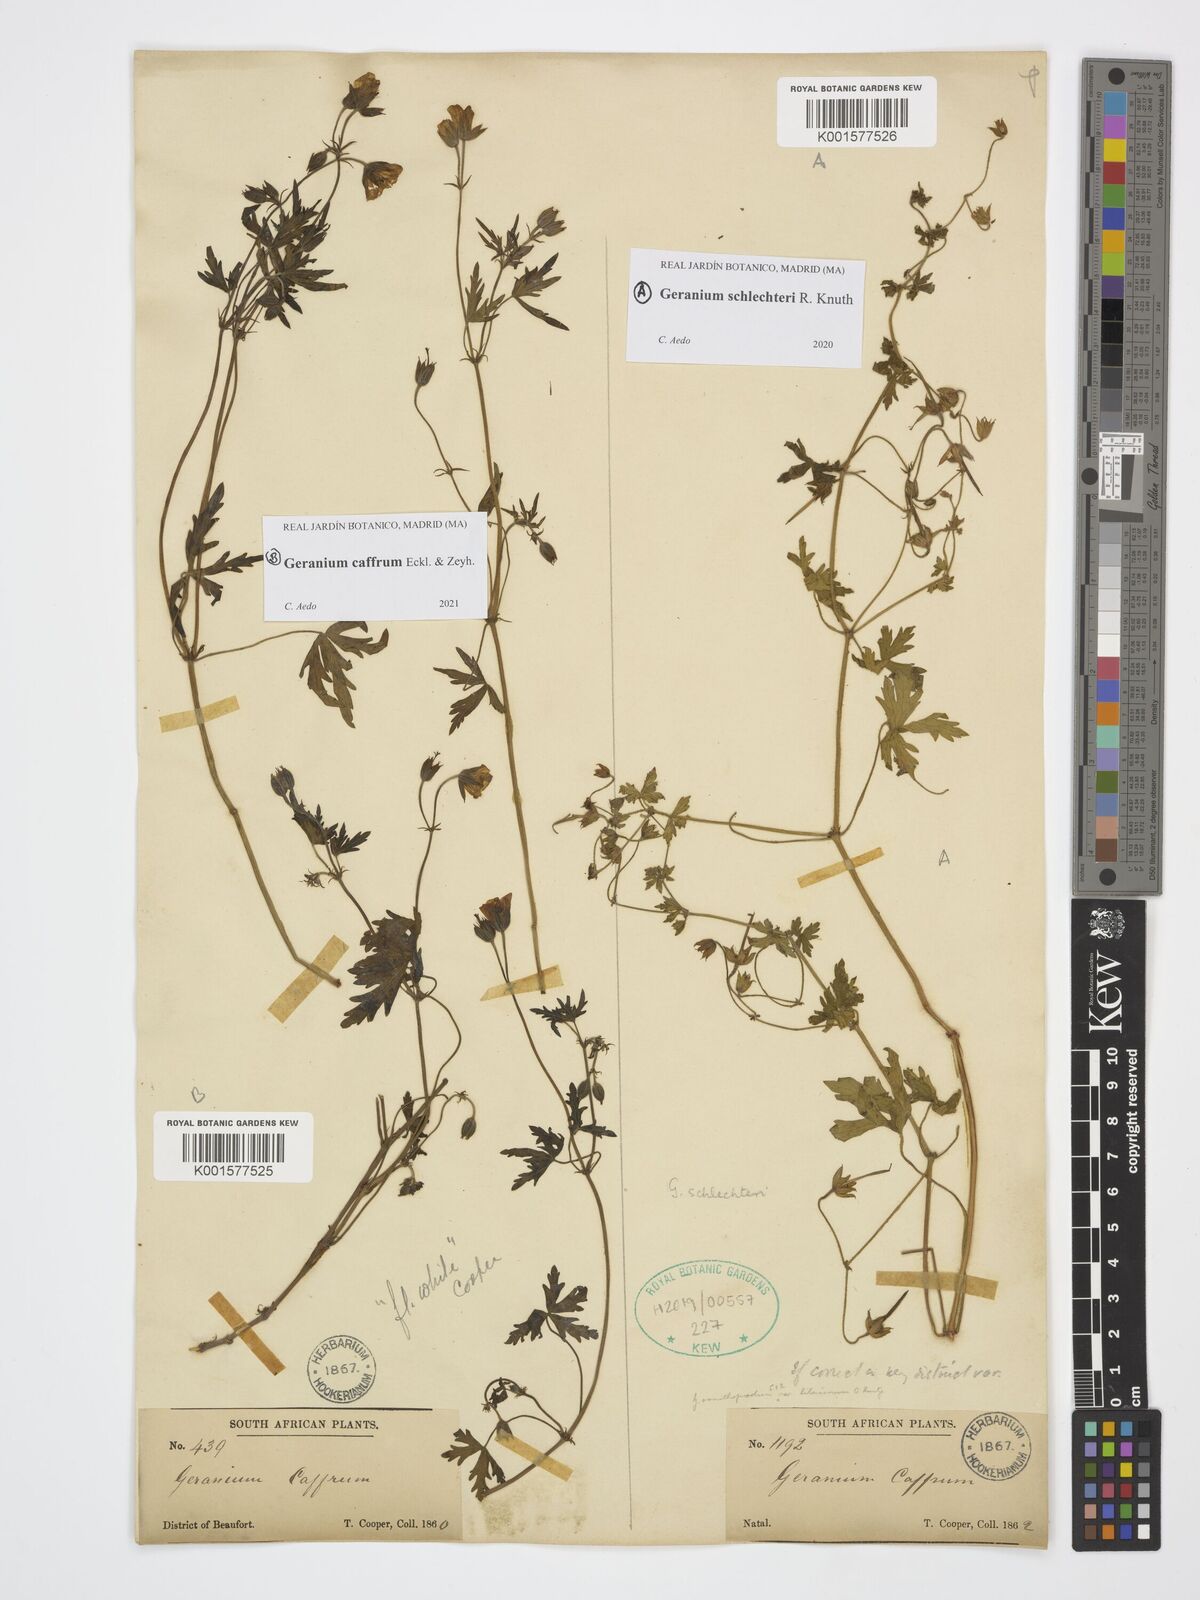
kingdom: Plantae
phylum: Tracheophyta
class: Magnoliopsida
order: Geraniales
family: Geraniaceae
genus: Geranium
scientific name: Geranium caffrum
